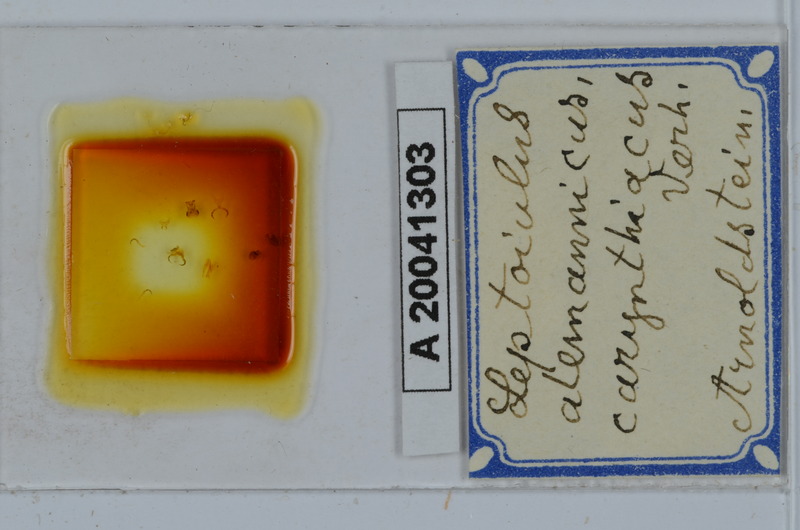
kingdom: Animalia
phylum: Arthropoda
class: Diplopoda
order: Julida
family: Julidae
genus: Leptoiulus
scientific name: Leptoiulus alemannicus
